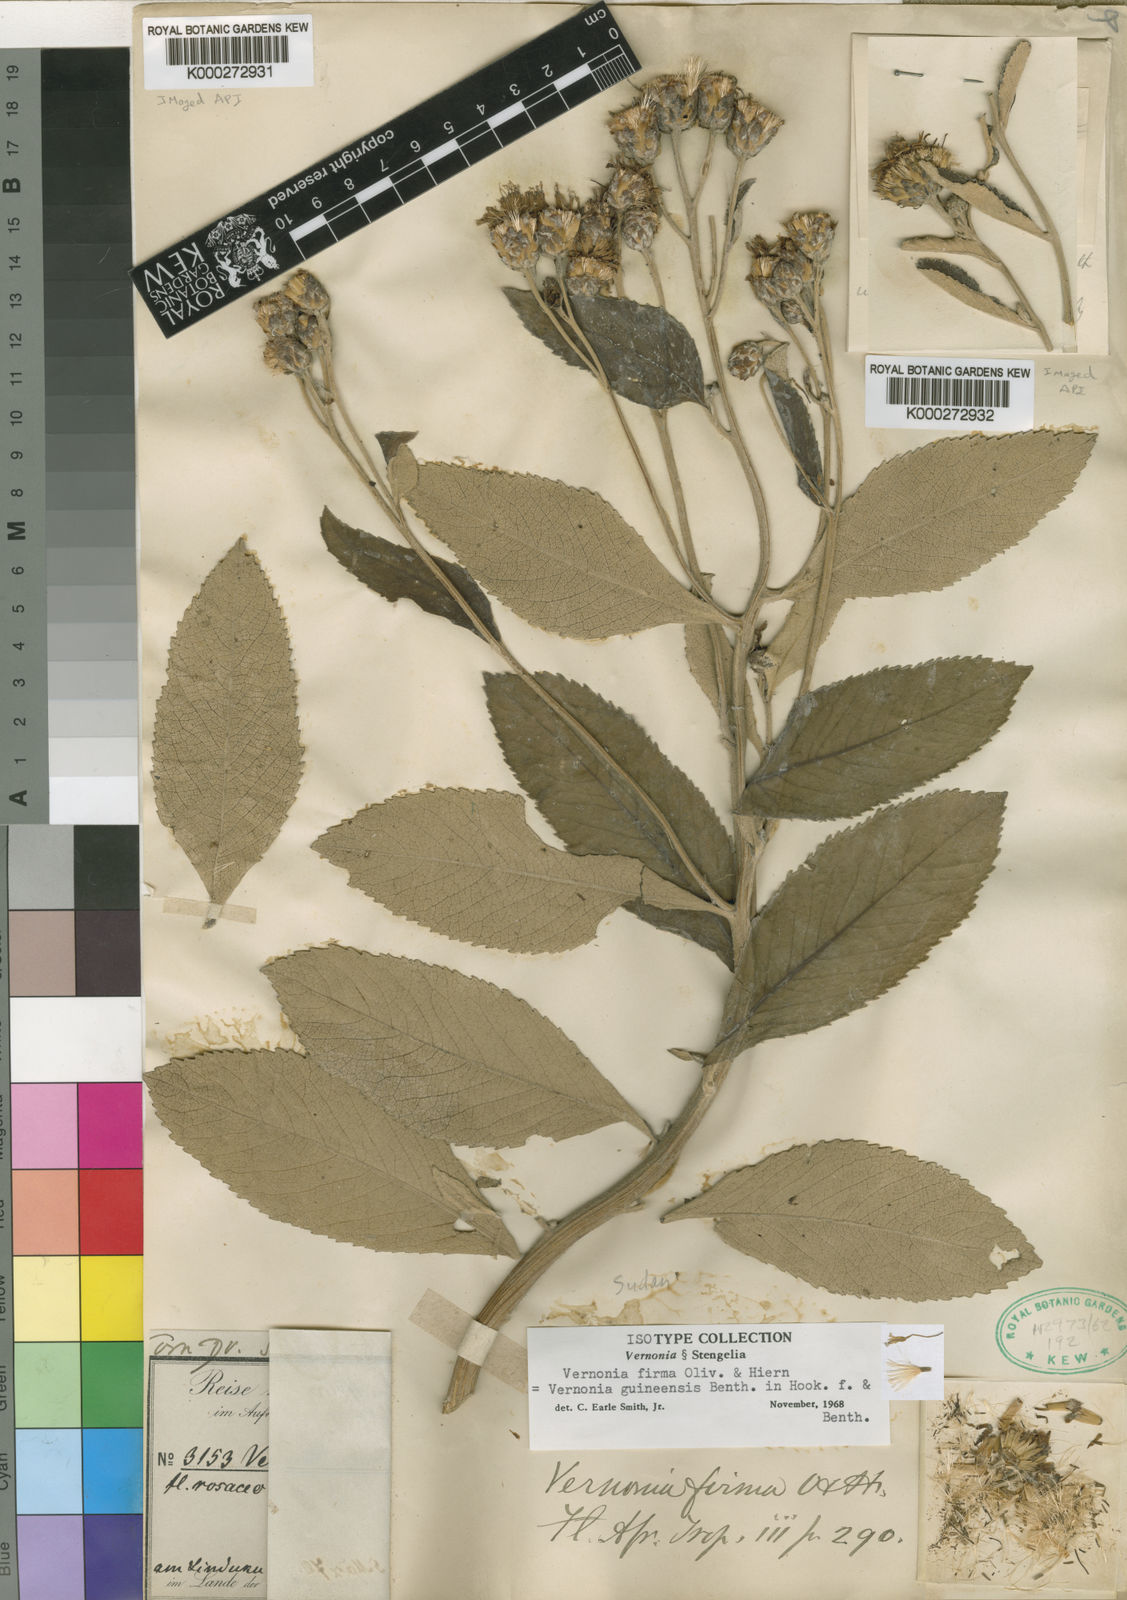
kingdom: Plantae
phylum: Tracheophyta
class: Magnoliopsida
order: Asterales
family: Asteraceae
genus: Baccharoides
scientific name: Baccharoides guineensis
